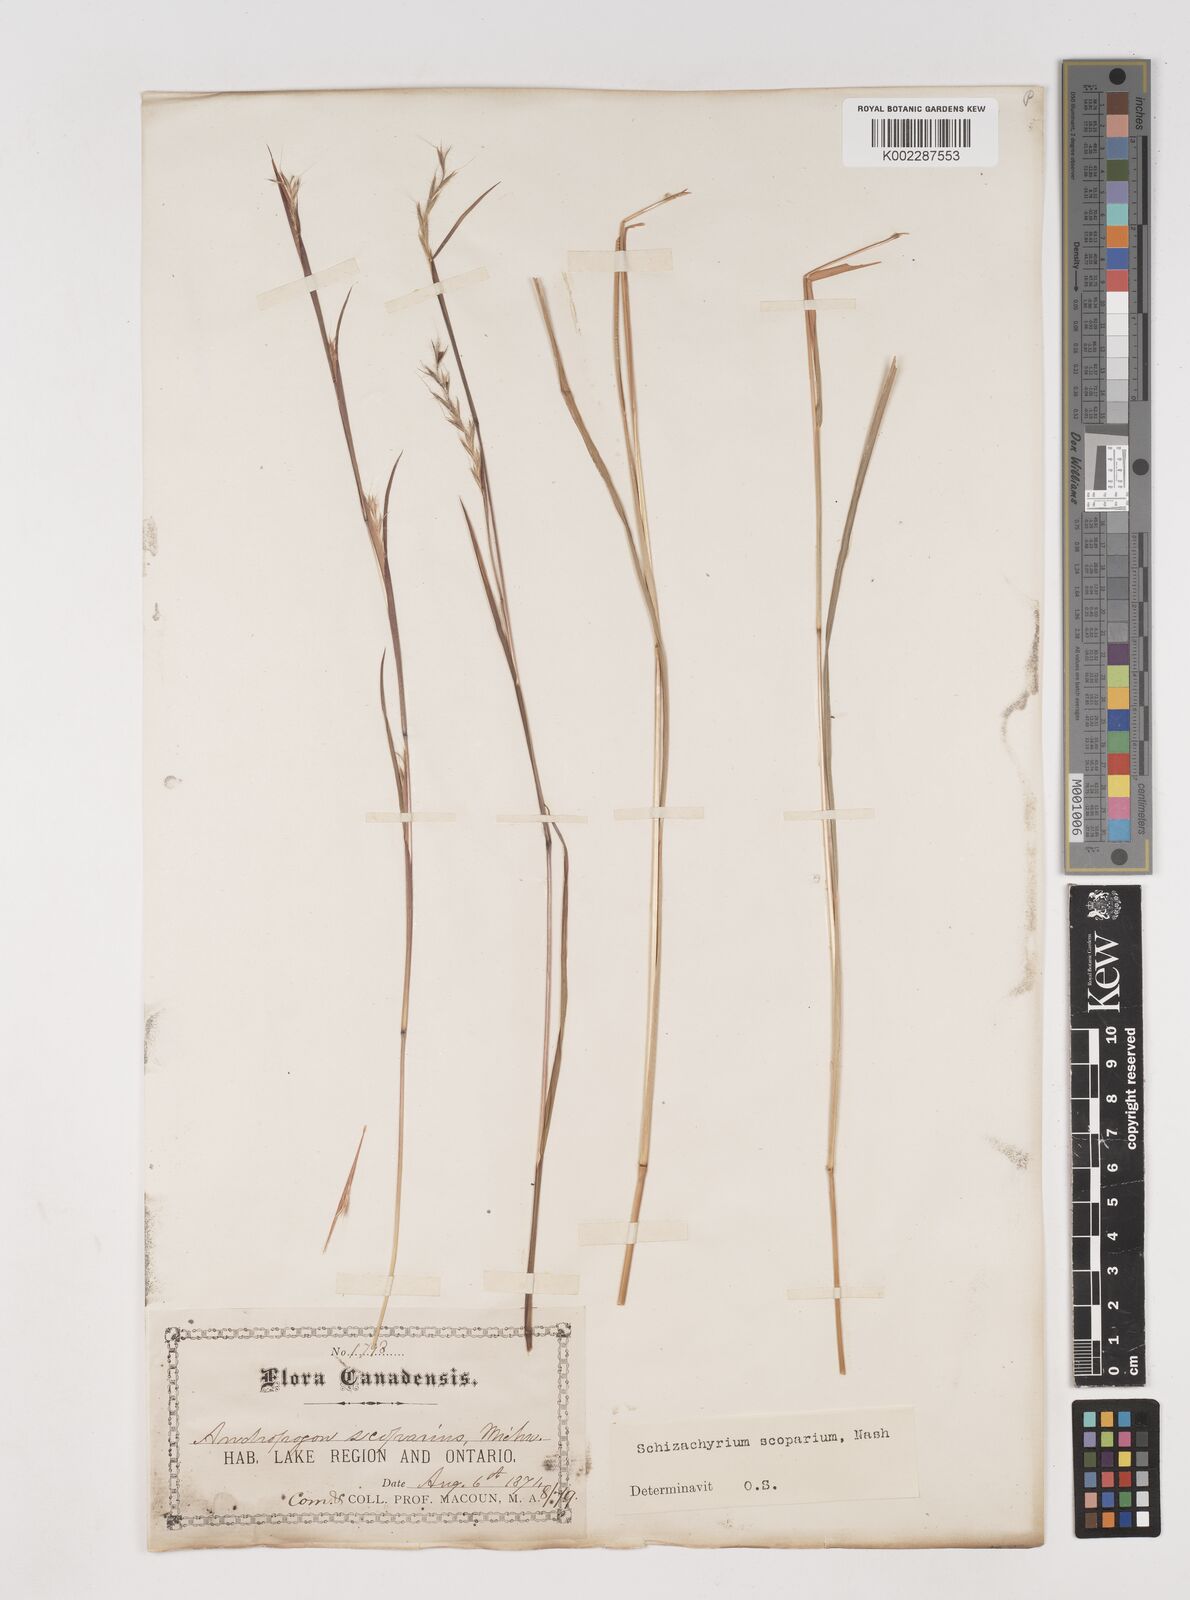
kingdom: Plantae
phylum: Tracheophyta
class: Liliopsida
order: Poales
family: Poaceae
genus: Schizachyrium
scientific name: Schizachyrium scoparium
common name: Little bluestem
